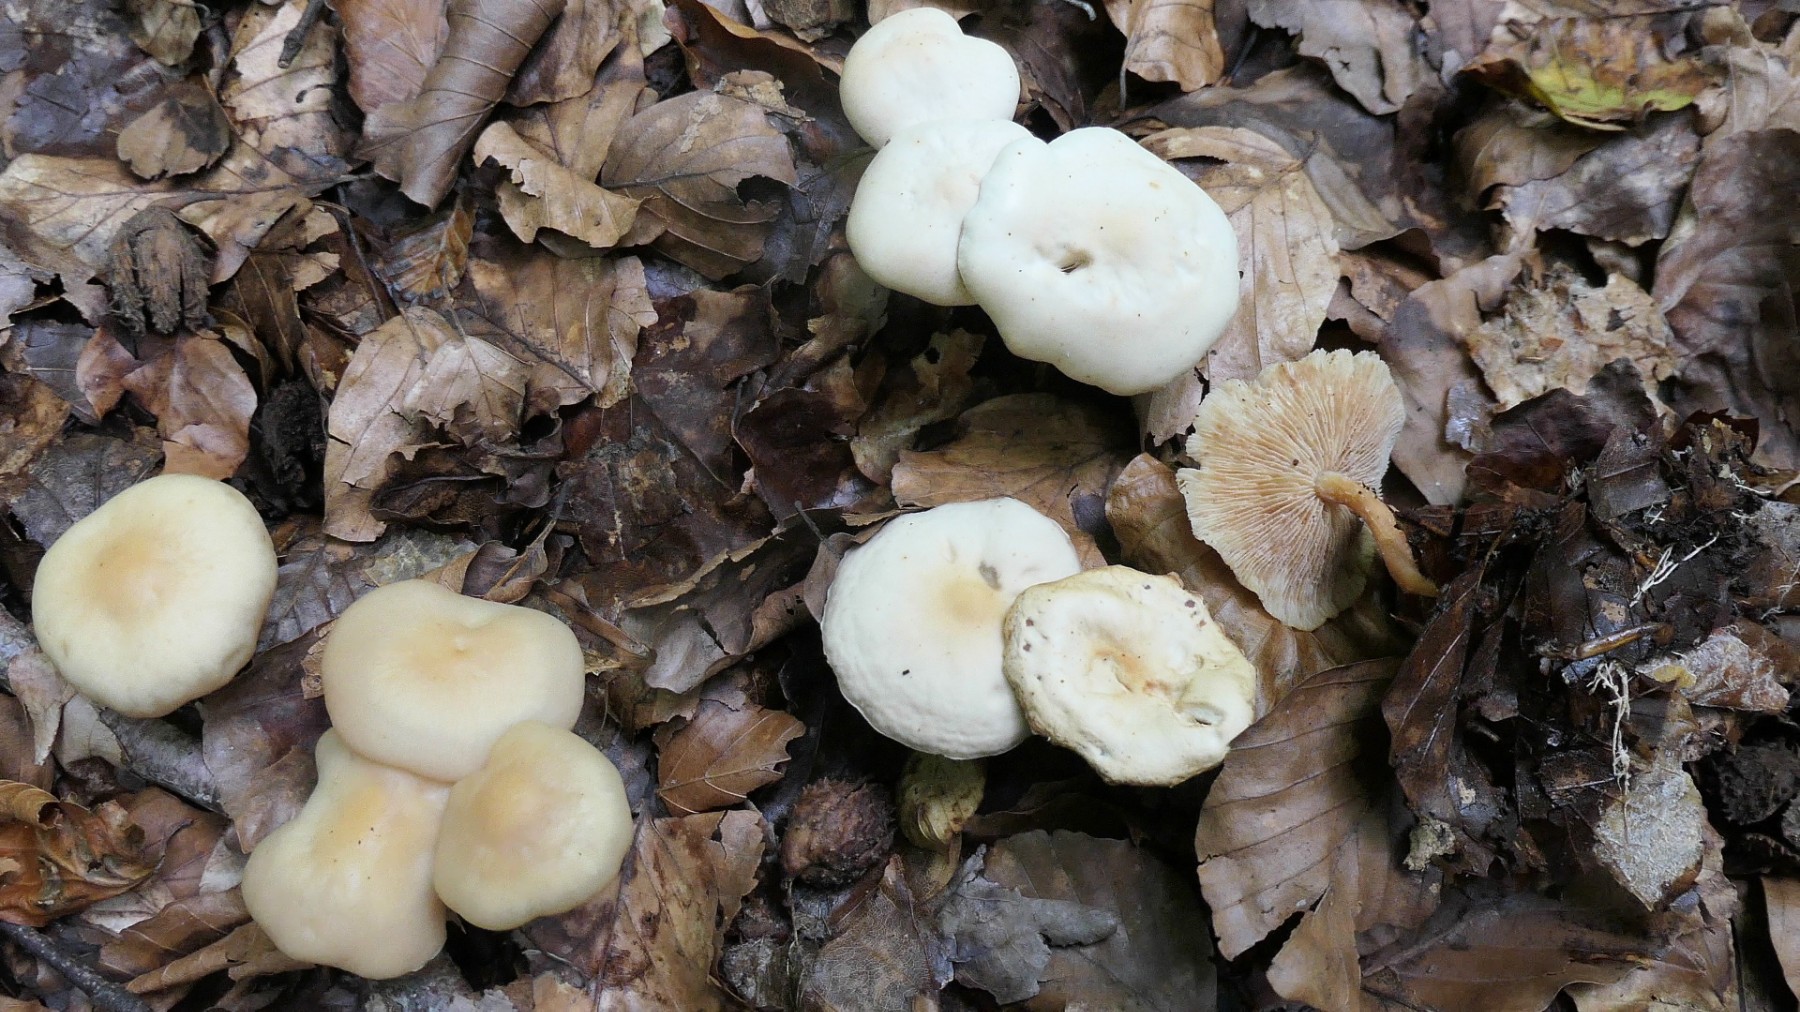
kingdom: Fungi
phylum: Basidiomycota
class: Agaricomycetes
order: Agaricales
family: Omphalotaceae
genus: Gymnopus
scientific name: Gymnopus aquosus
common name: bleg fladhat
